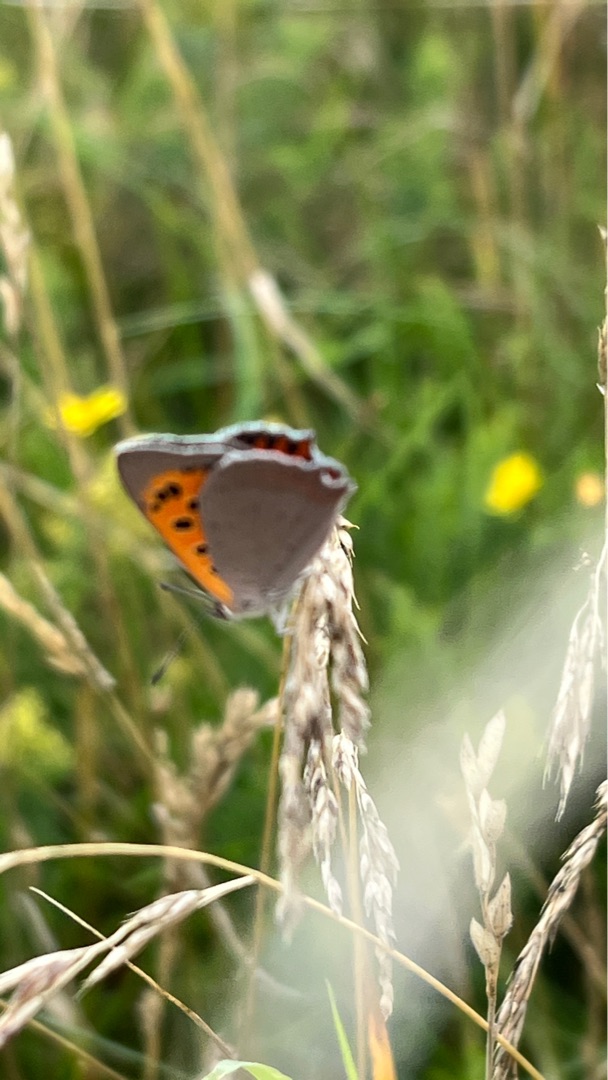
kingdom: Animalia
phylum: Arthropoda
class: Insecta
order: Lepidoptera
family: Lycaenidae
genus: Lycaena
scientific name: Lycaena phlaeas
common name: Lille ildfugl
